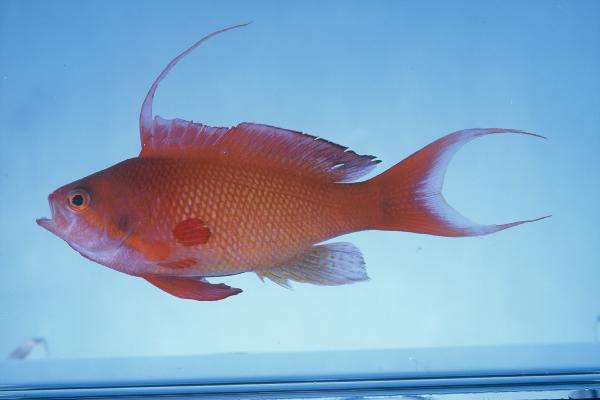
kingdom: Animalia
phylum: Chordata
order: Perciformes
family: Serranidae
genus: Pseudanthias
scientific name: Pseudanthias squamipinnis
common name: Scalefin anthias
